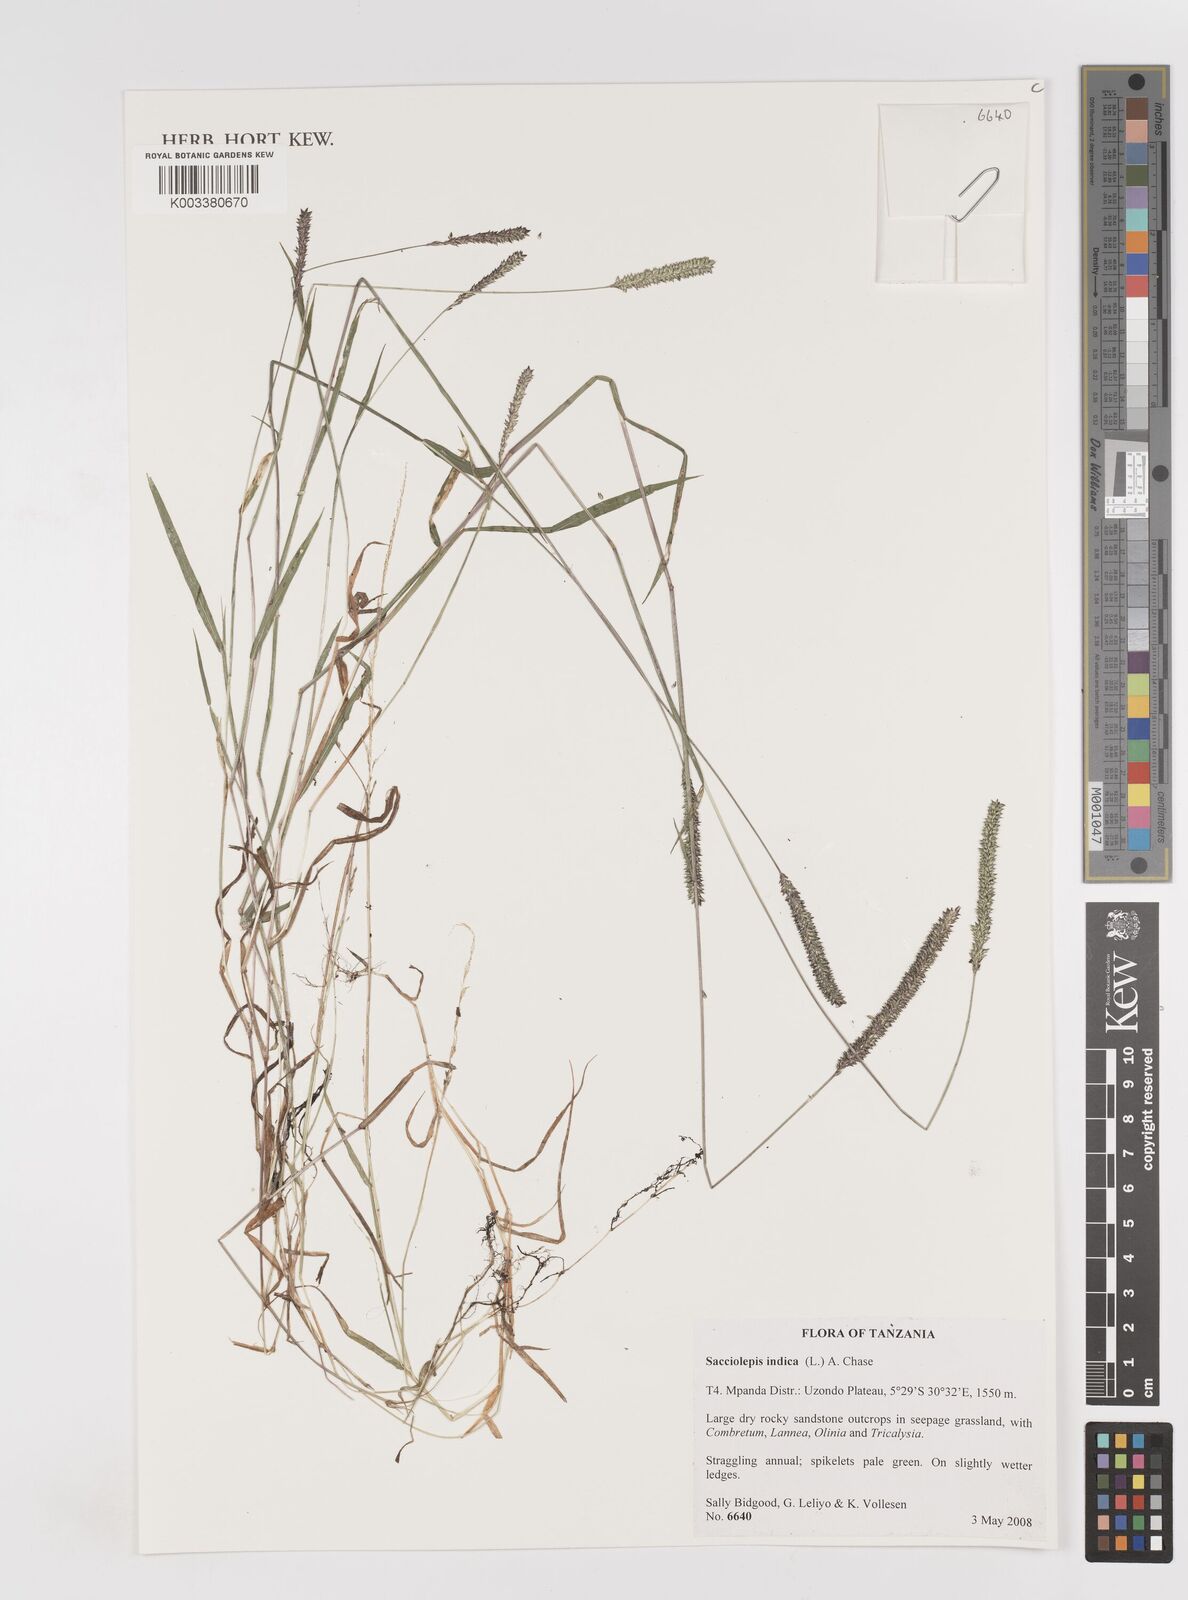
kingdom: Plantae
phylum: Tracheophyta
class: Liliopsida
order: Poales
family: Poaceae
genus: Sacciolepis
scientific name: Sacciolepis indica
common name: Glenwoodgrass
